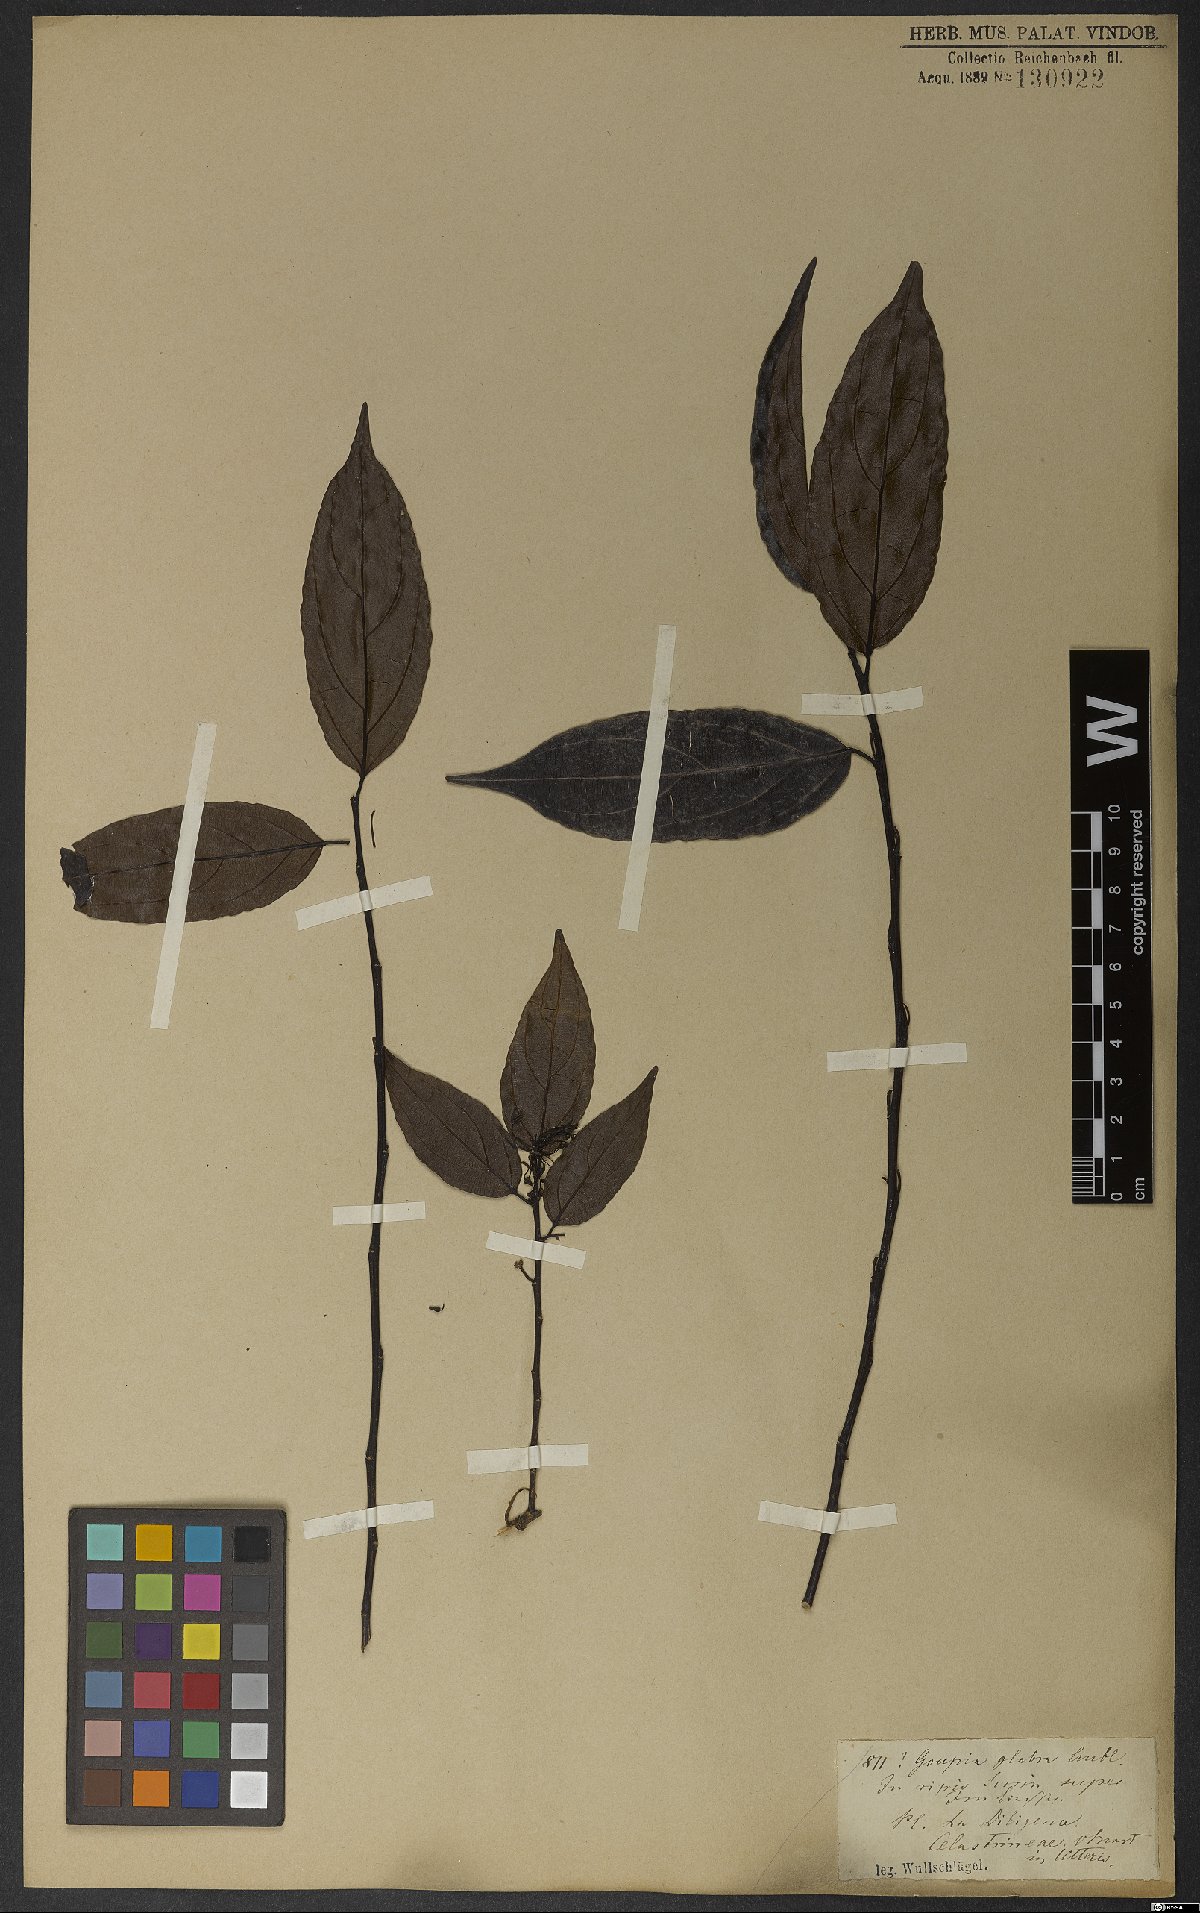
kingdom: Plantae
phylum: Tracheophyta
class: Magnoliopsida
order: Malpighiales
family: Goupiaceae
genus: Goupia
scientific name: Goupia glabra
